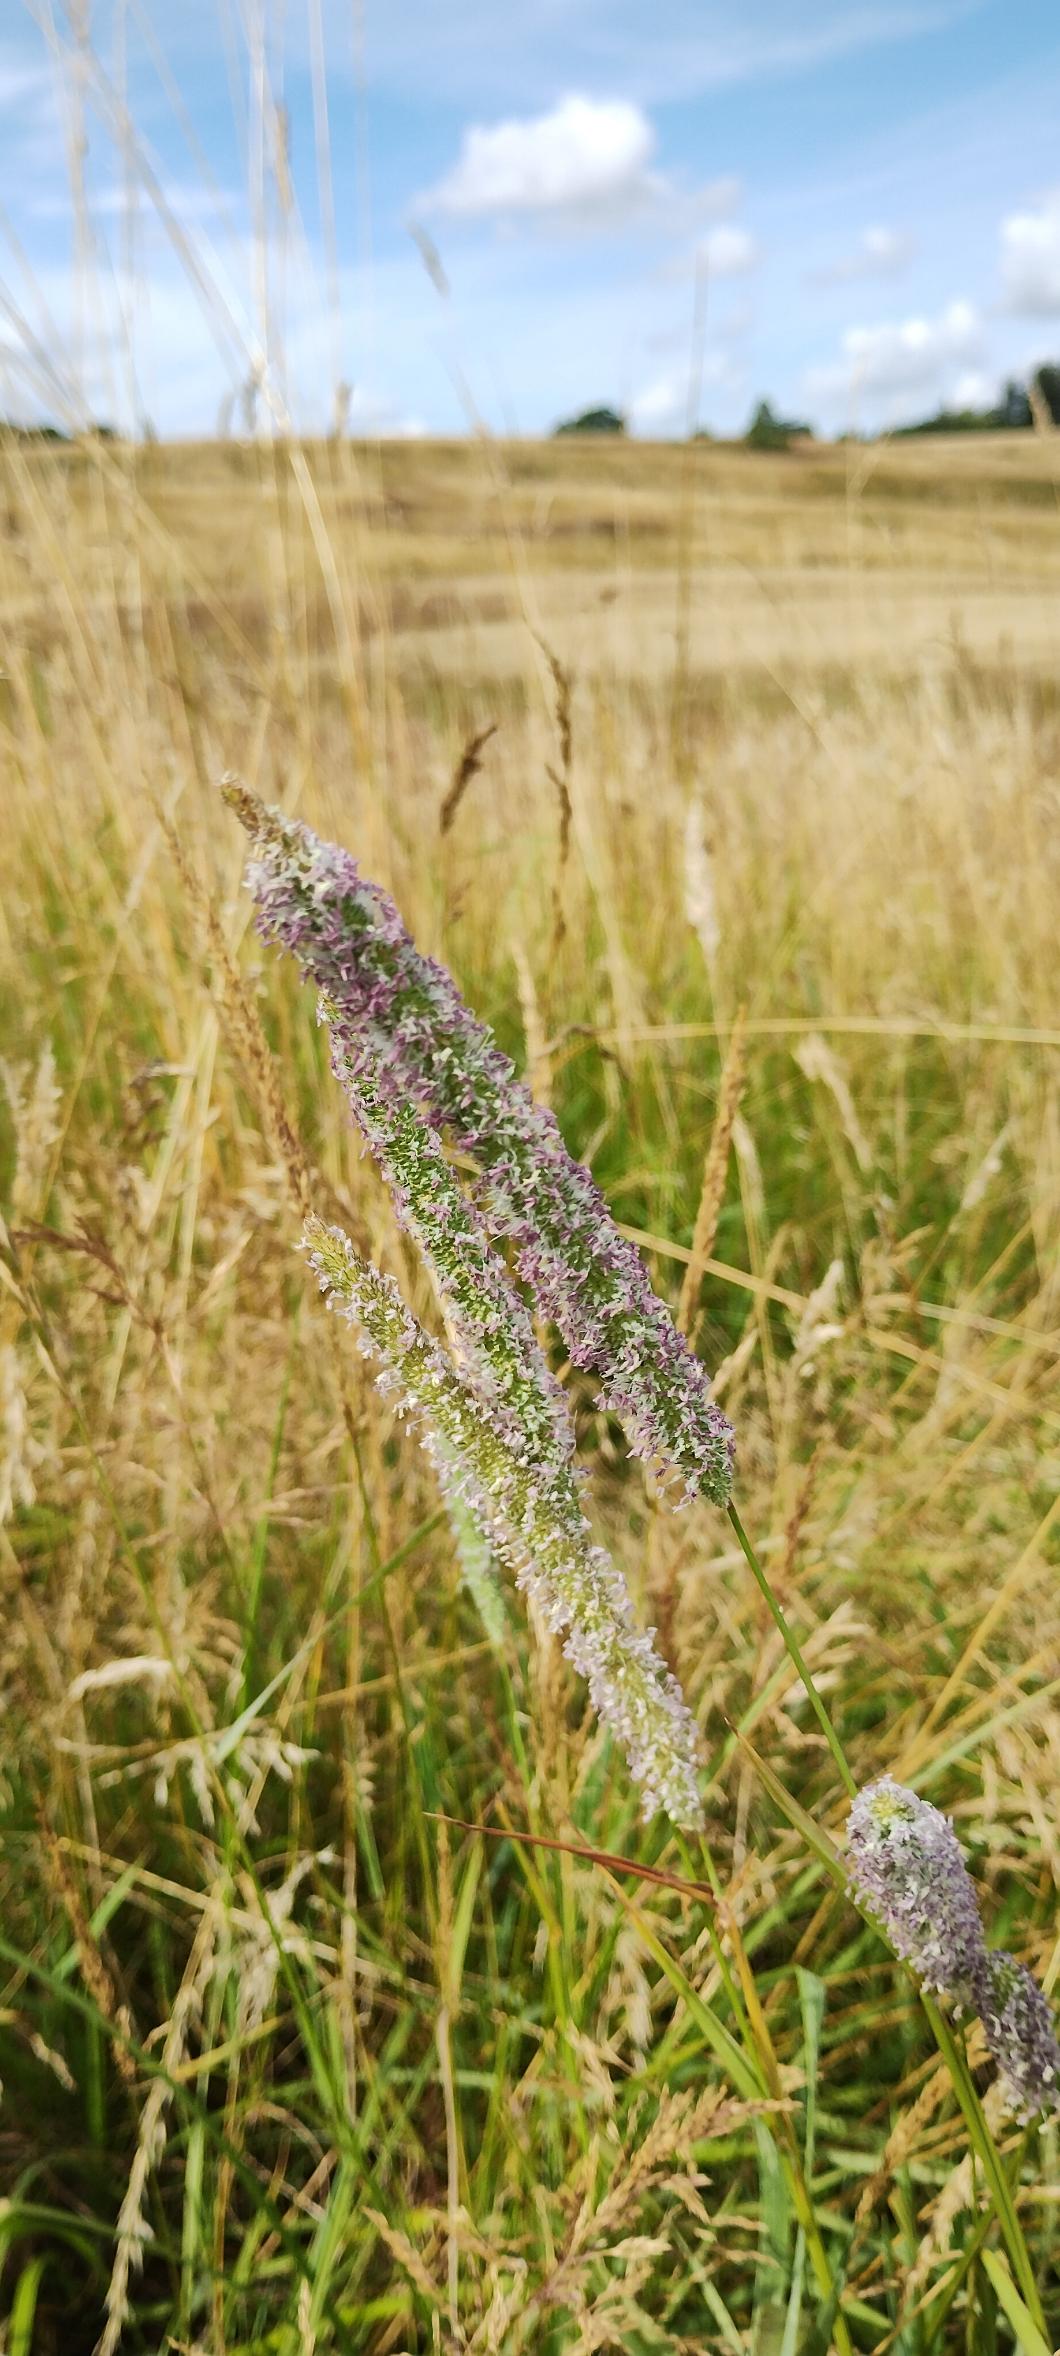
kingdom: Plantae
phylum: Tracheophyta
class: Liliopsida
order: Poales
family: Poaceae
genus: Phleum
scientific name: Phleum
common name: Rottehaleslægten
